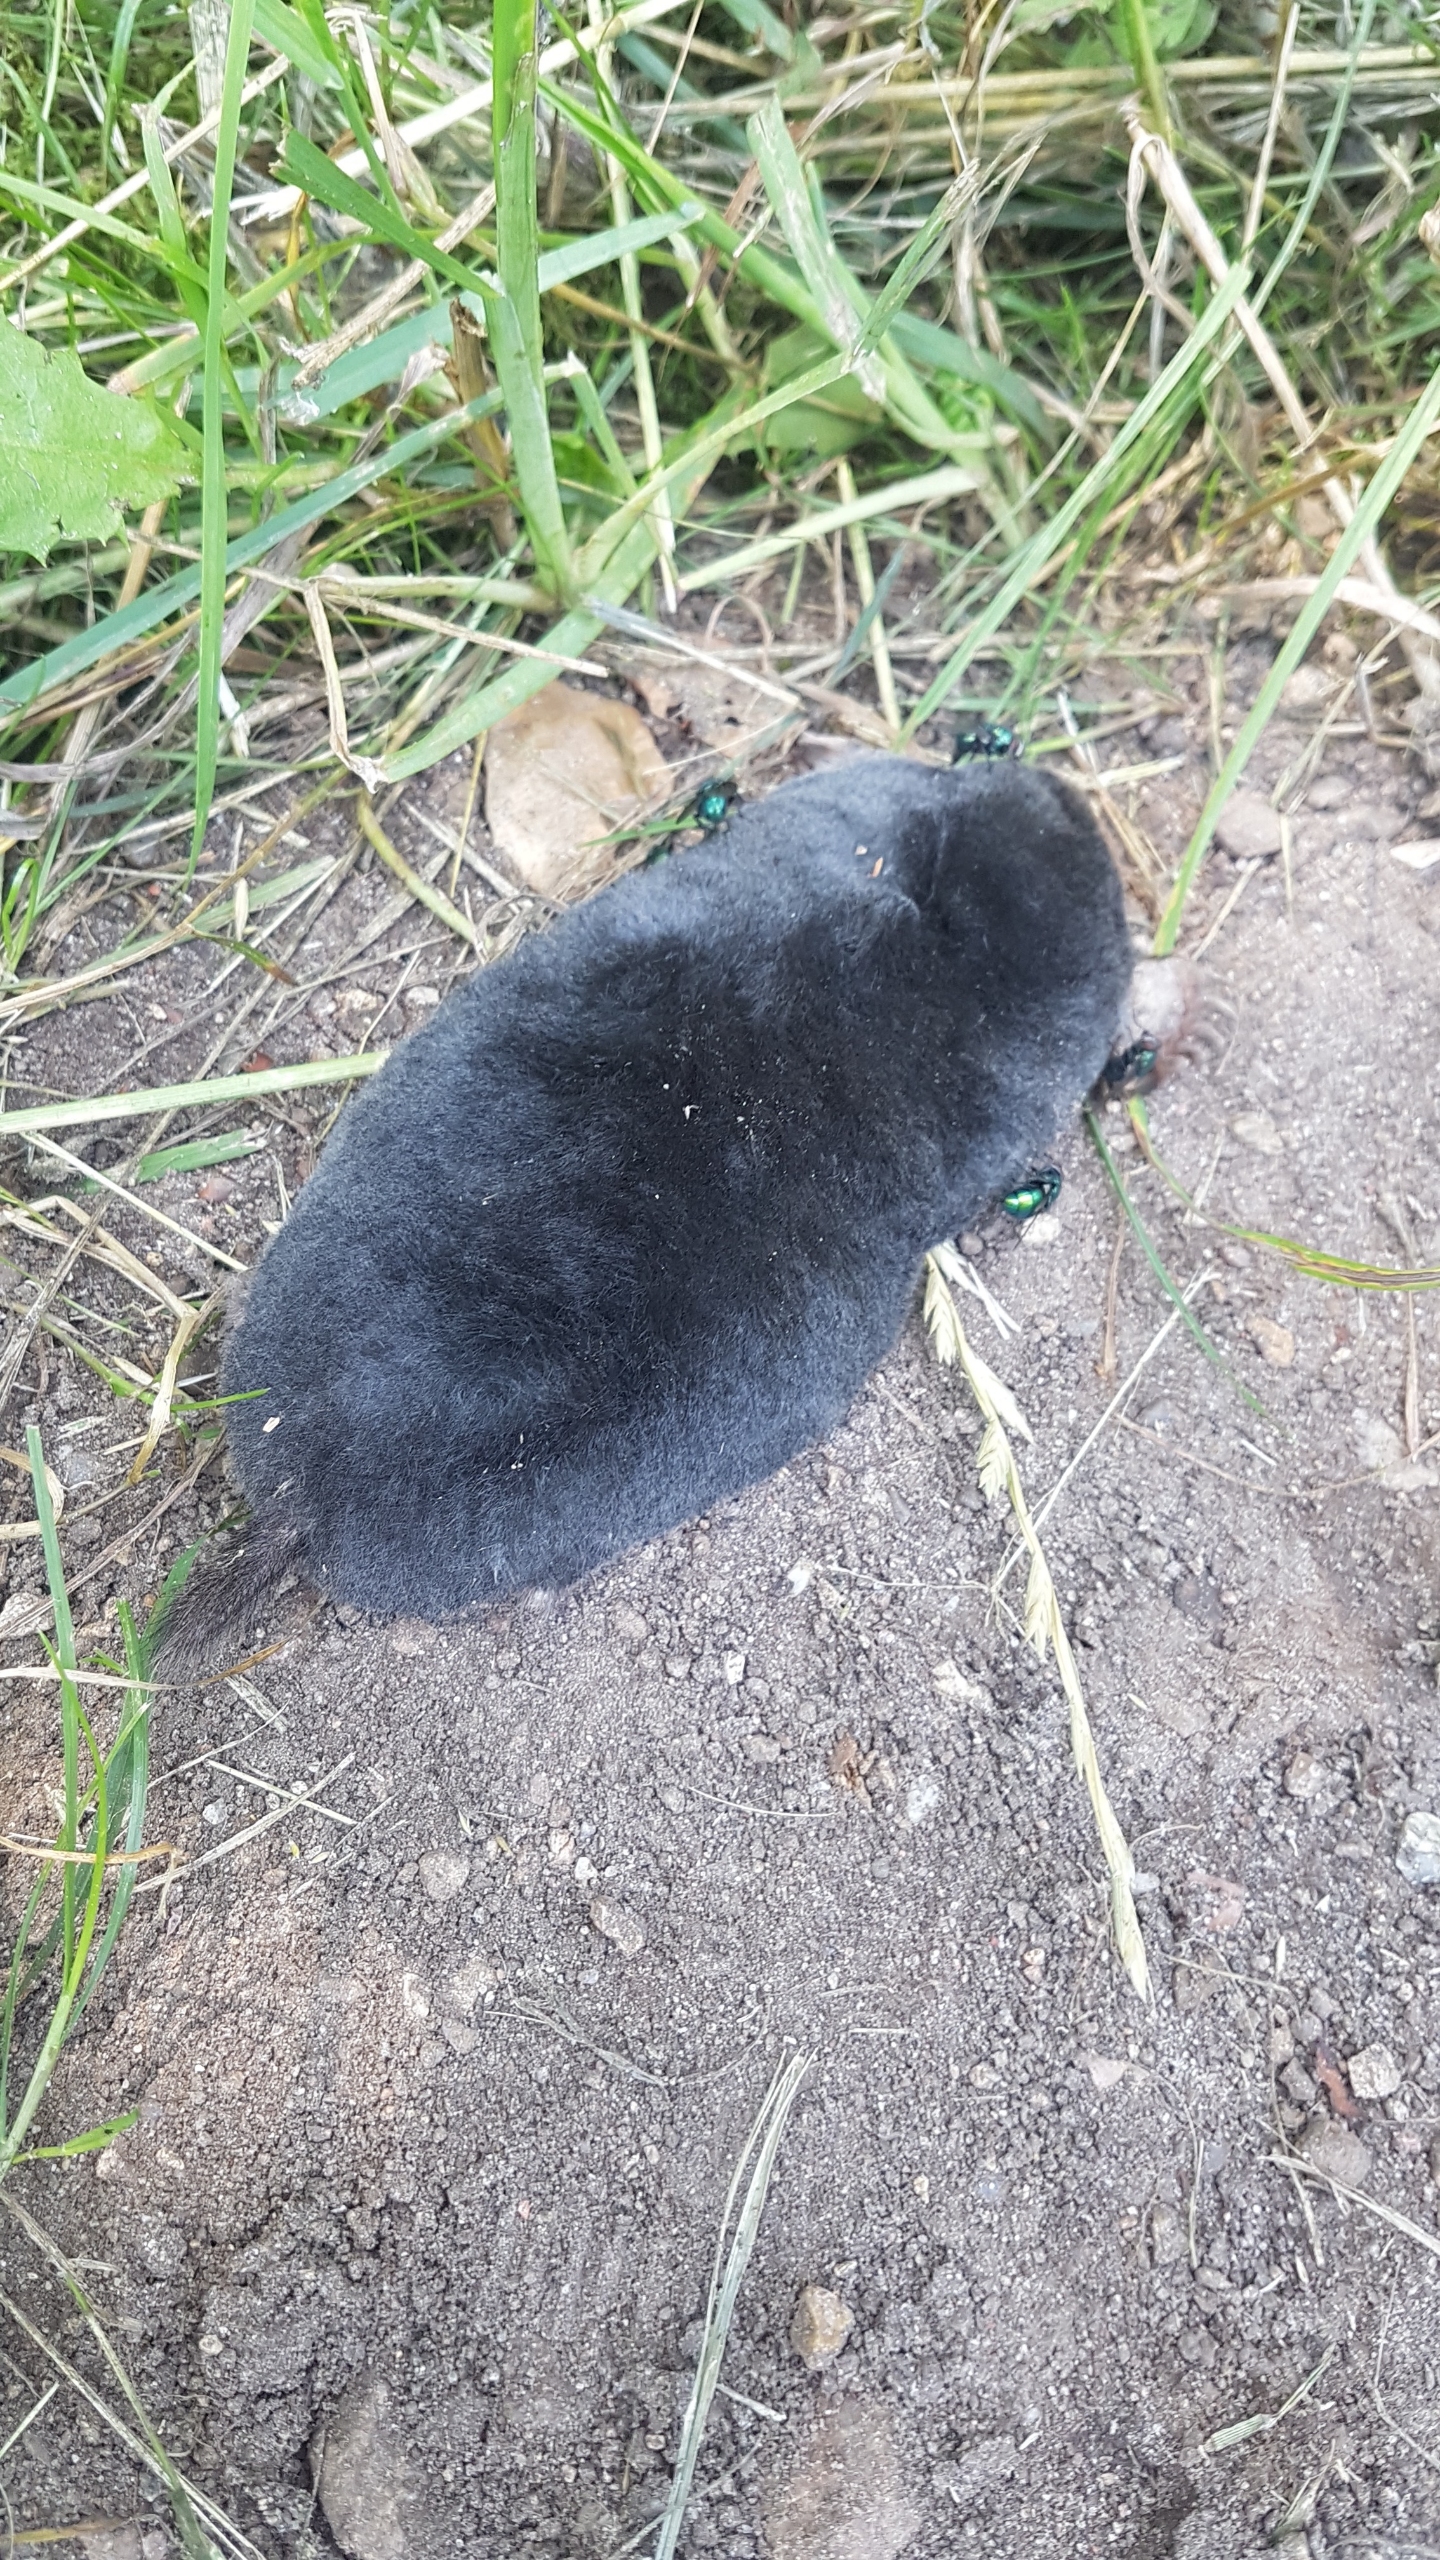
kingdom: Animalia
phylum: Chordata
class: Mammalia
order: Soricomorpha
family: Talpidae
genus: Talpa
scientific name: Talpa europaea
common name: Muldvarp
